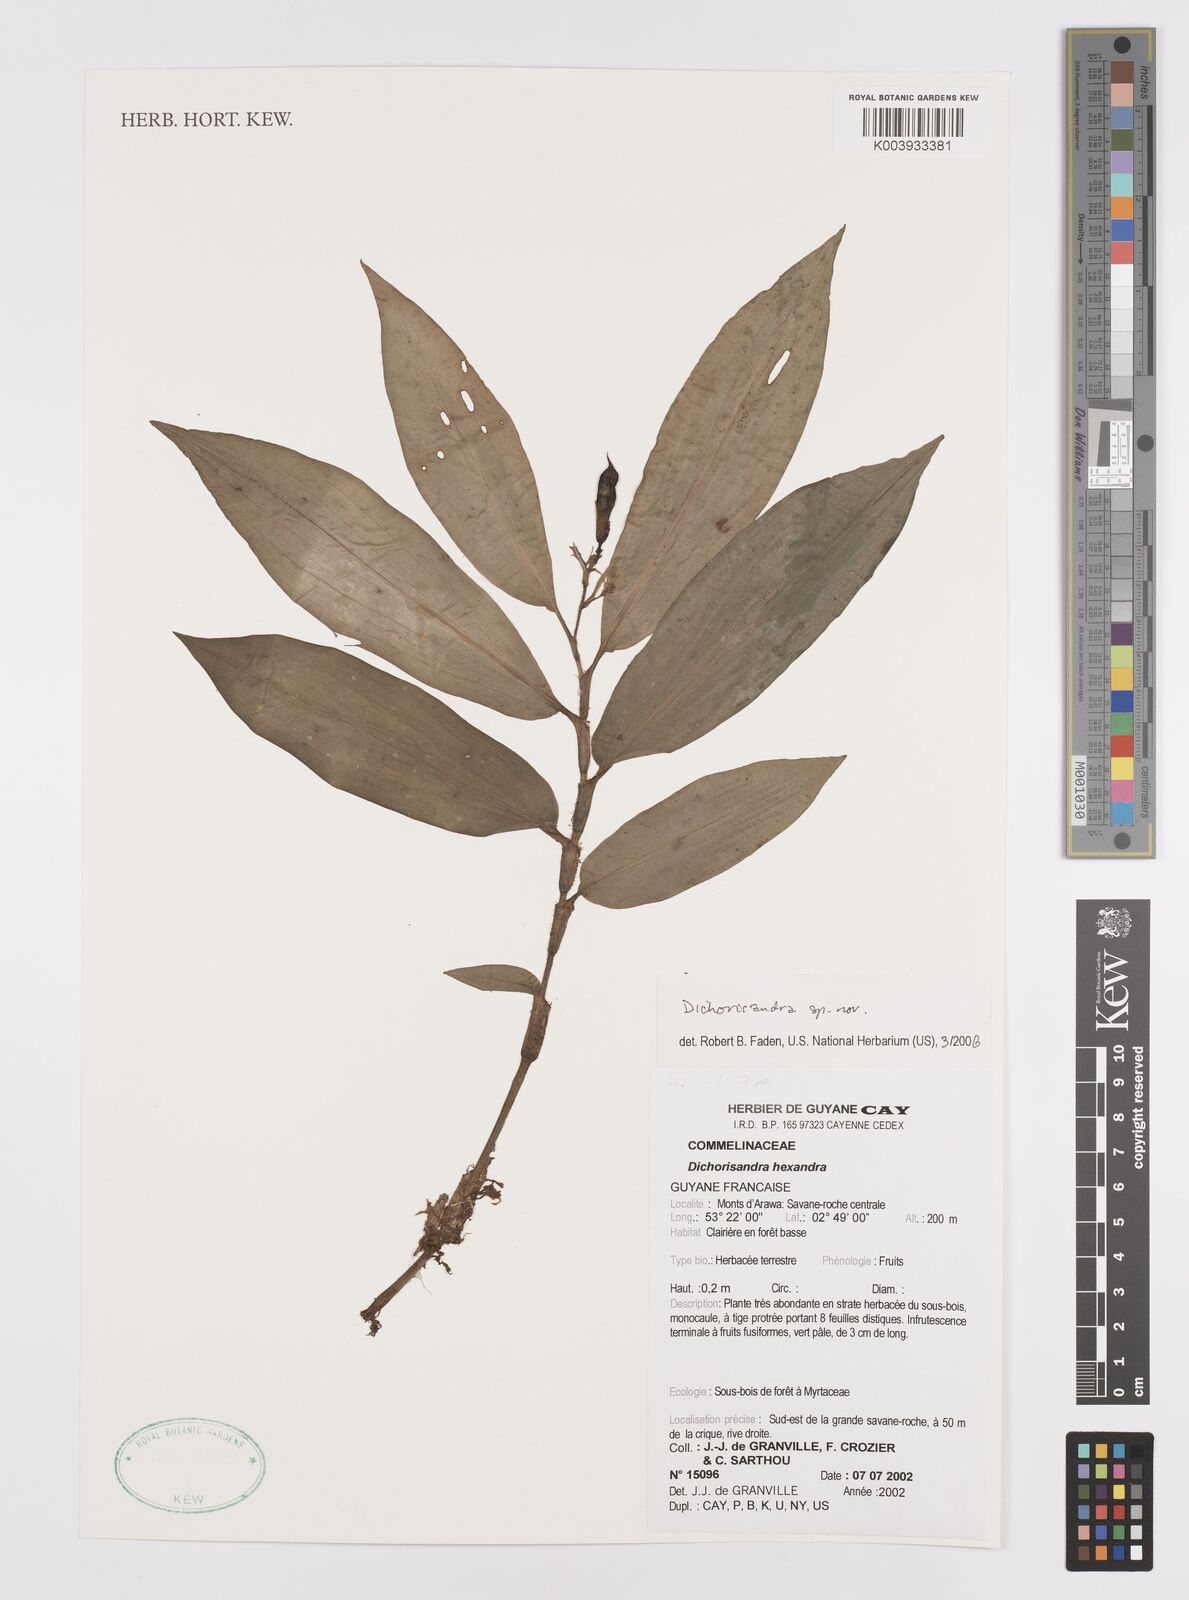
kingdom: Plantae
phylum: Tracheophyta
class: Liliopsida
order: Commelinales
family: Commelinaceae
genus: Dichorisandra
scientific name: Dichorisandra
